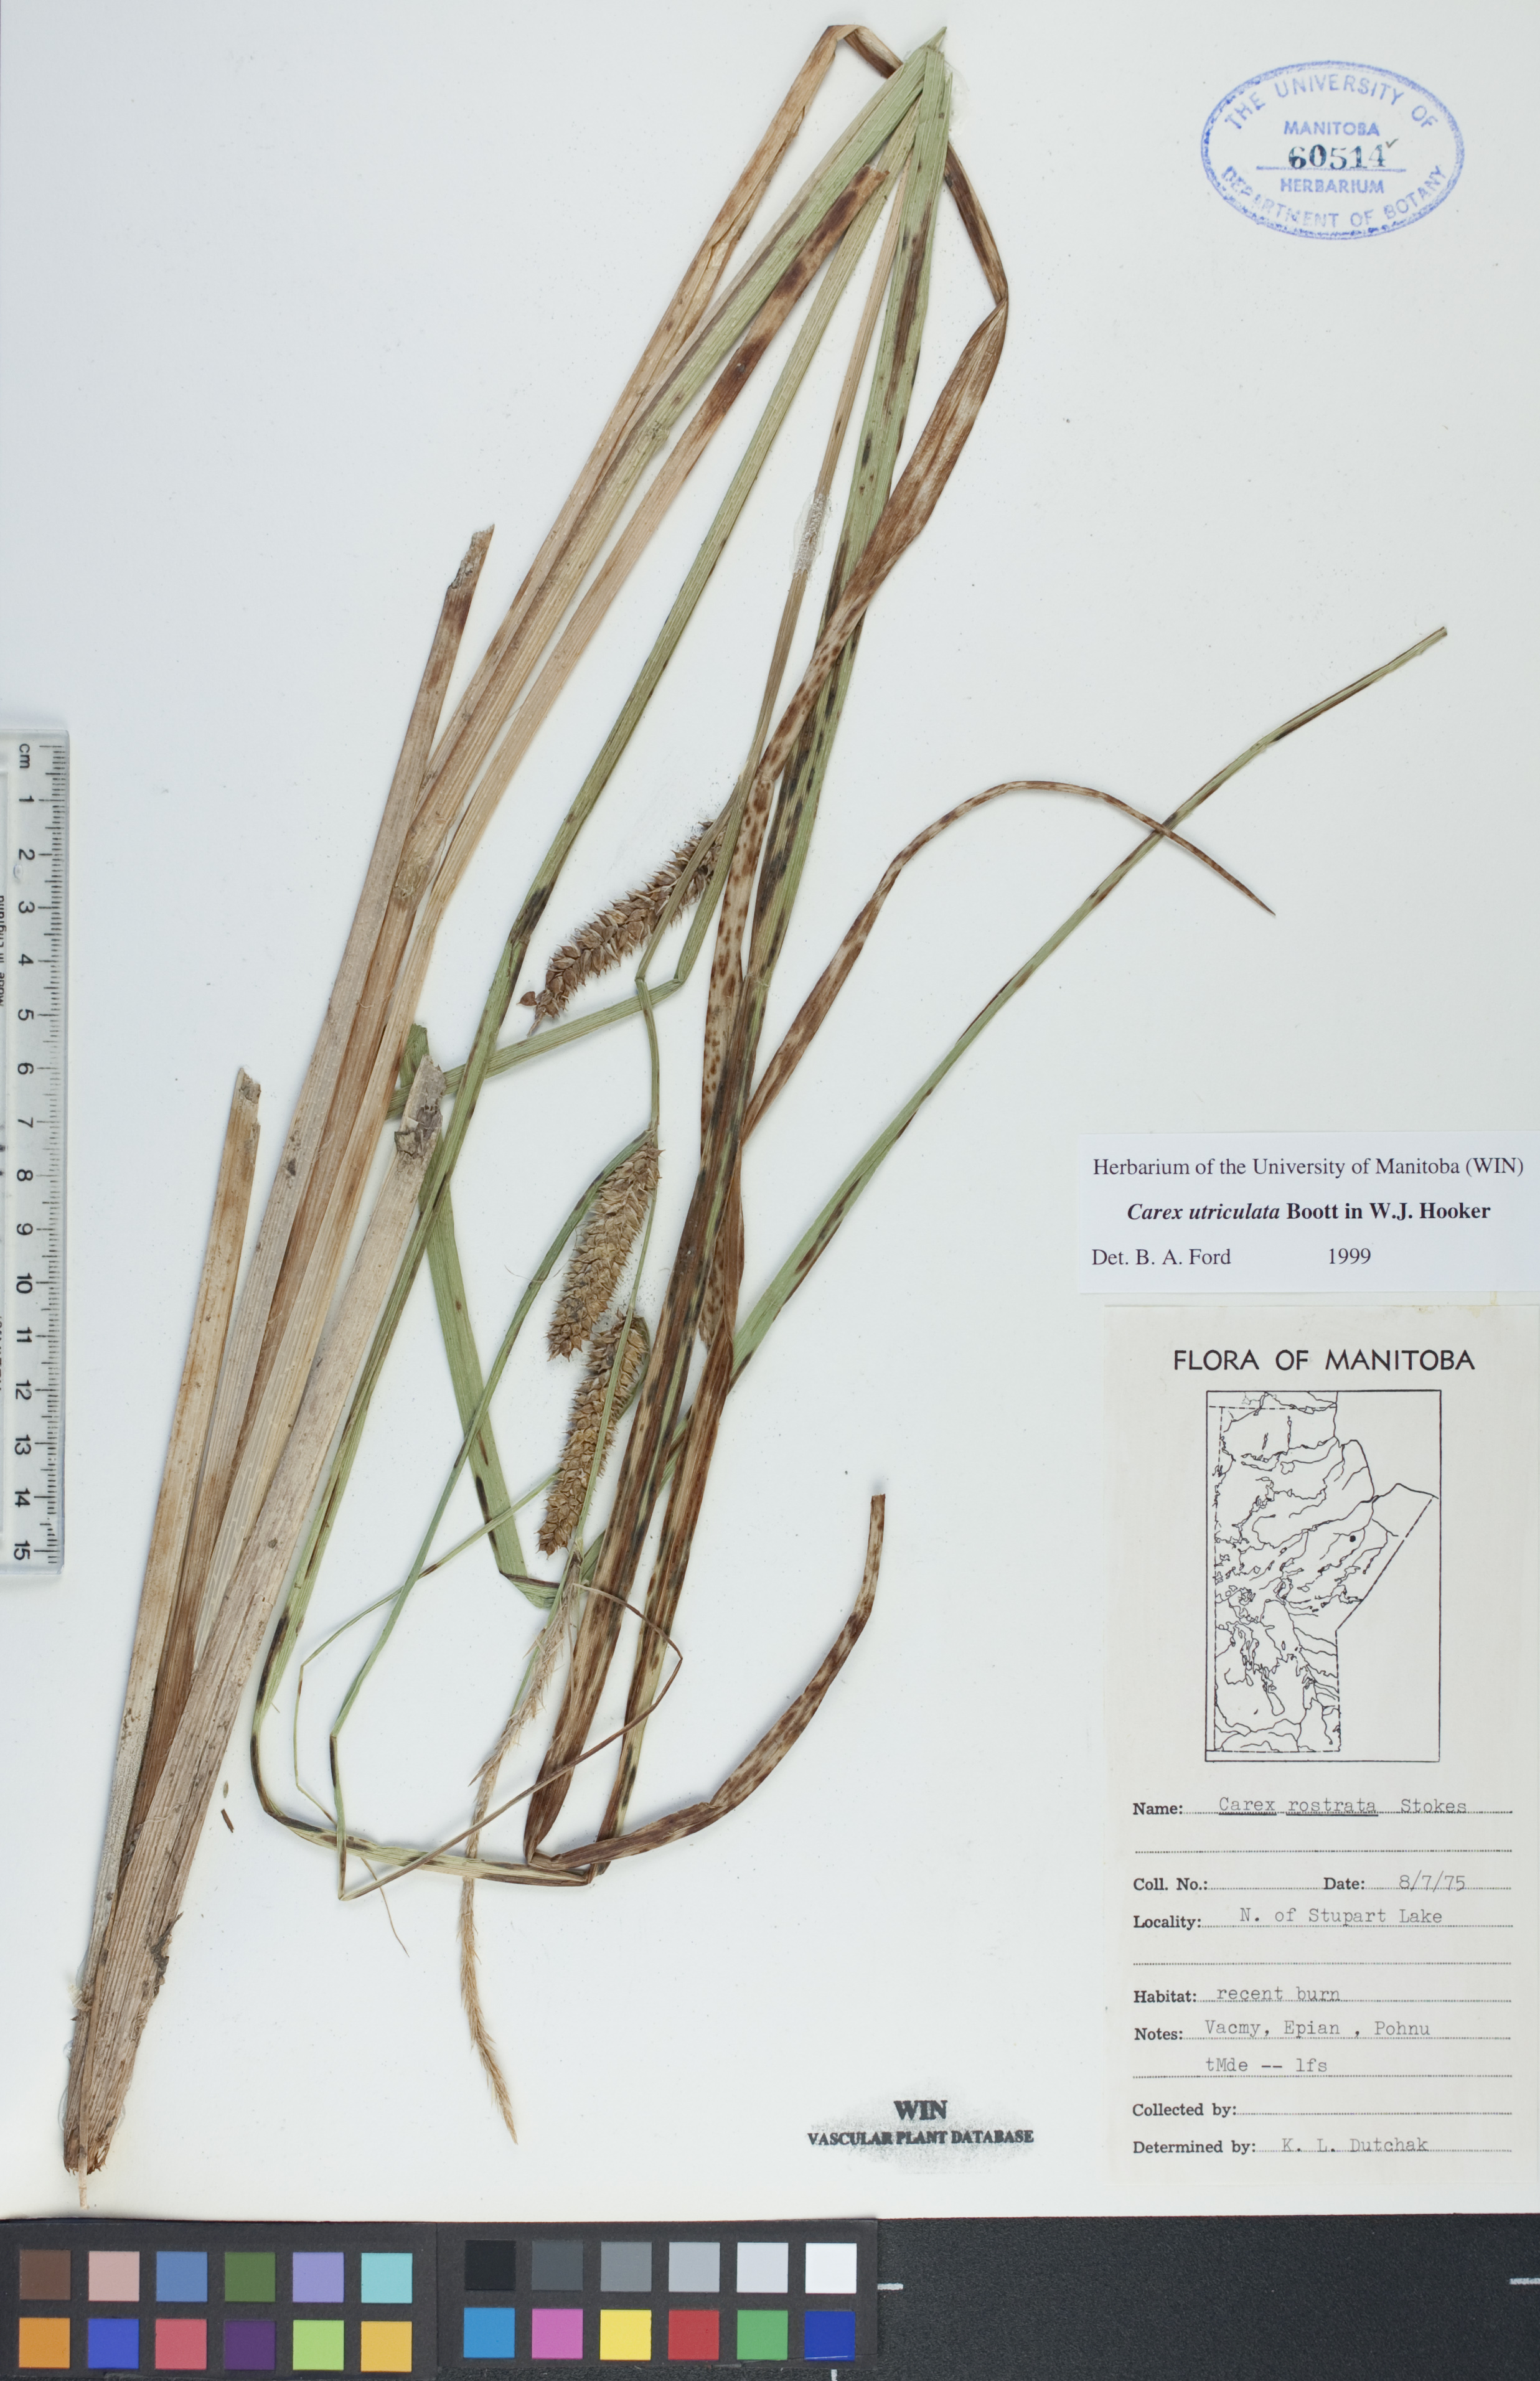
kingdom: Plantae
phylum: Tracheophyta
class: Liliopsida
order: Poales
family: Cyperaceae
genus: Carex
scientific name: Carex utriculata
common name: Beaked sedge
